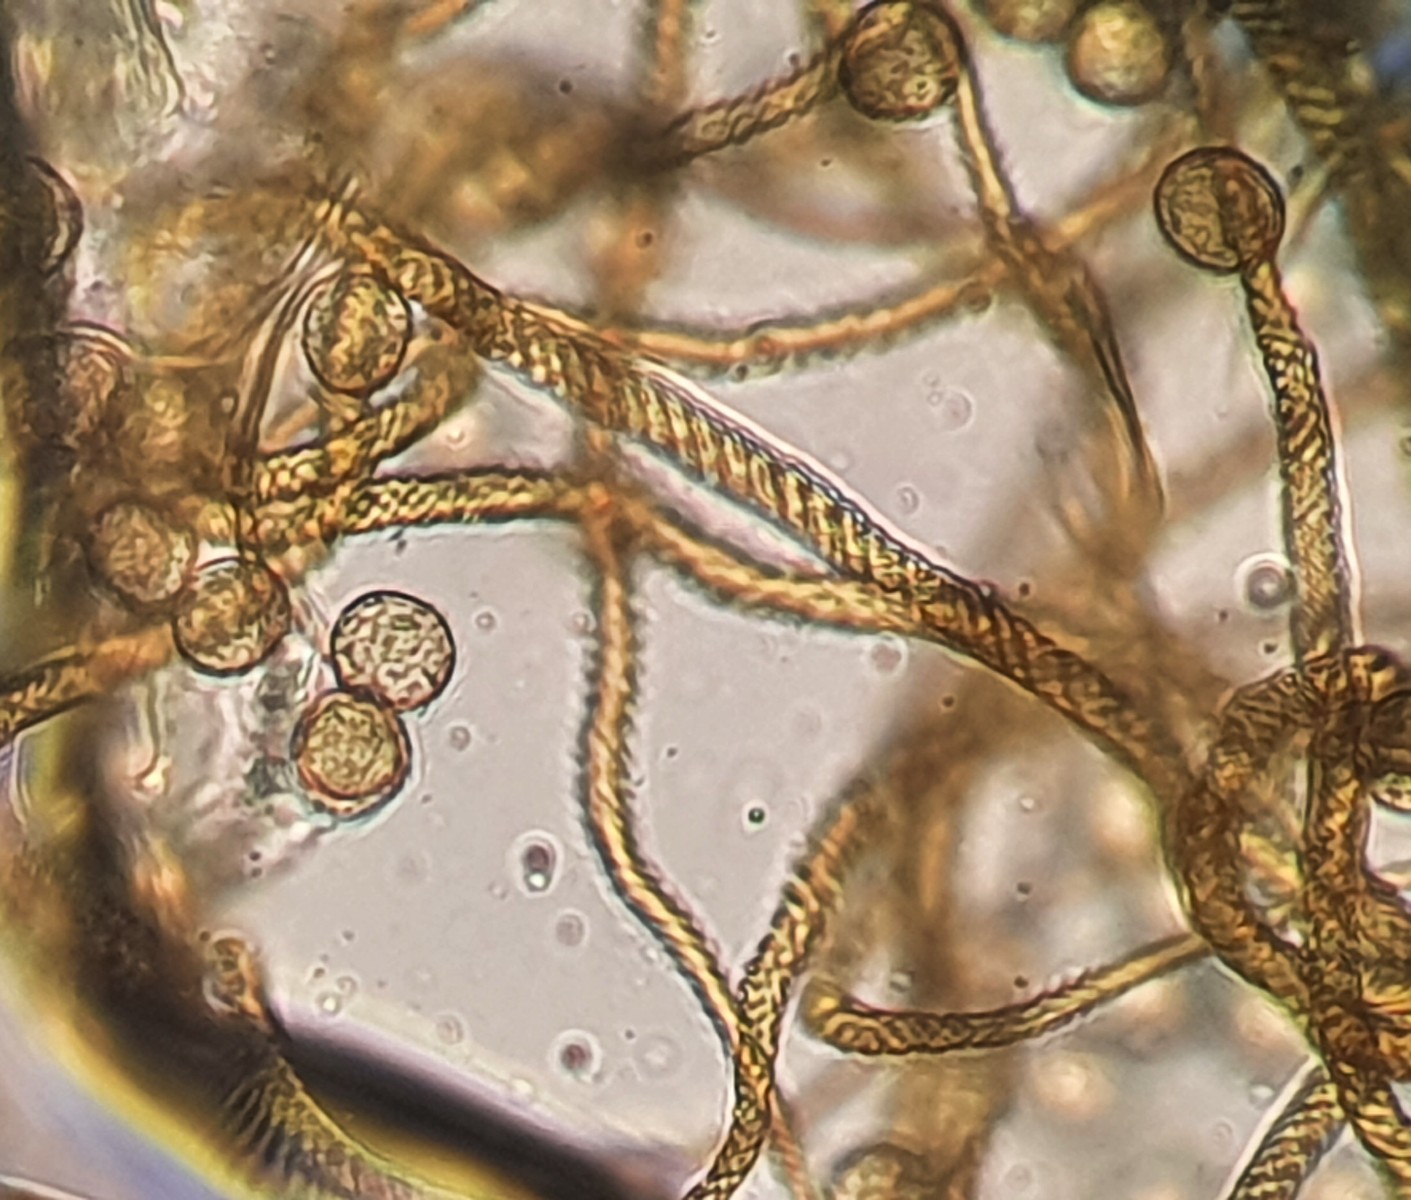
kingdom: Protozoa
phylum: Mycetozoa
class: Myxomycetes
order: Trichiales
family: Trichiaceae
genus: Trichia
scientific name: Trichia crateriformis
